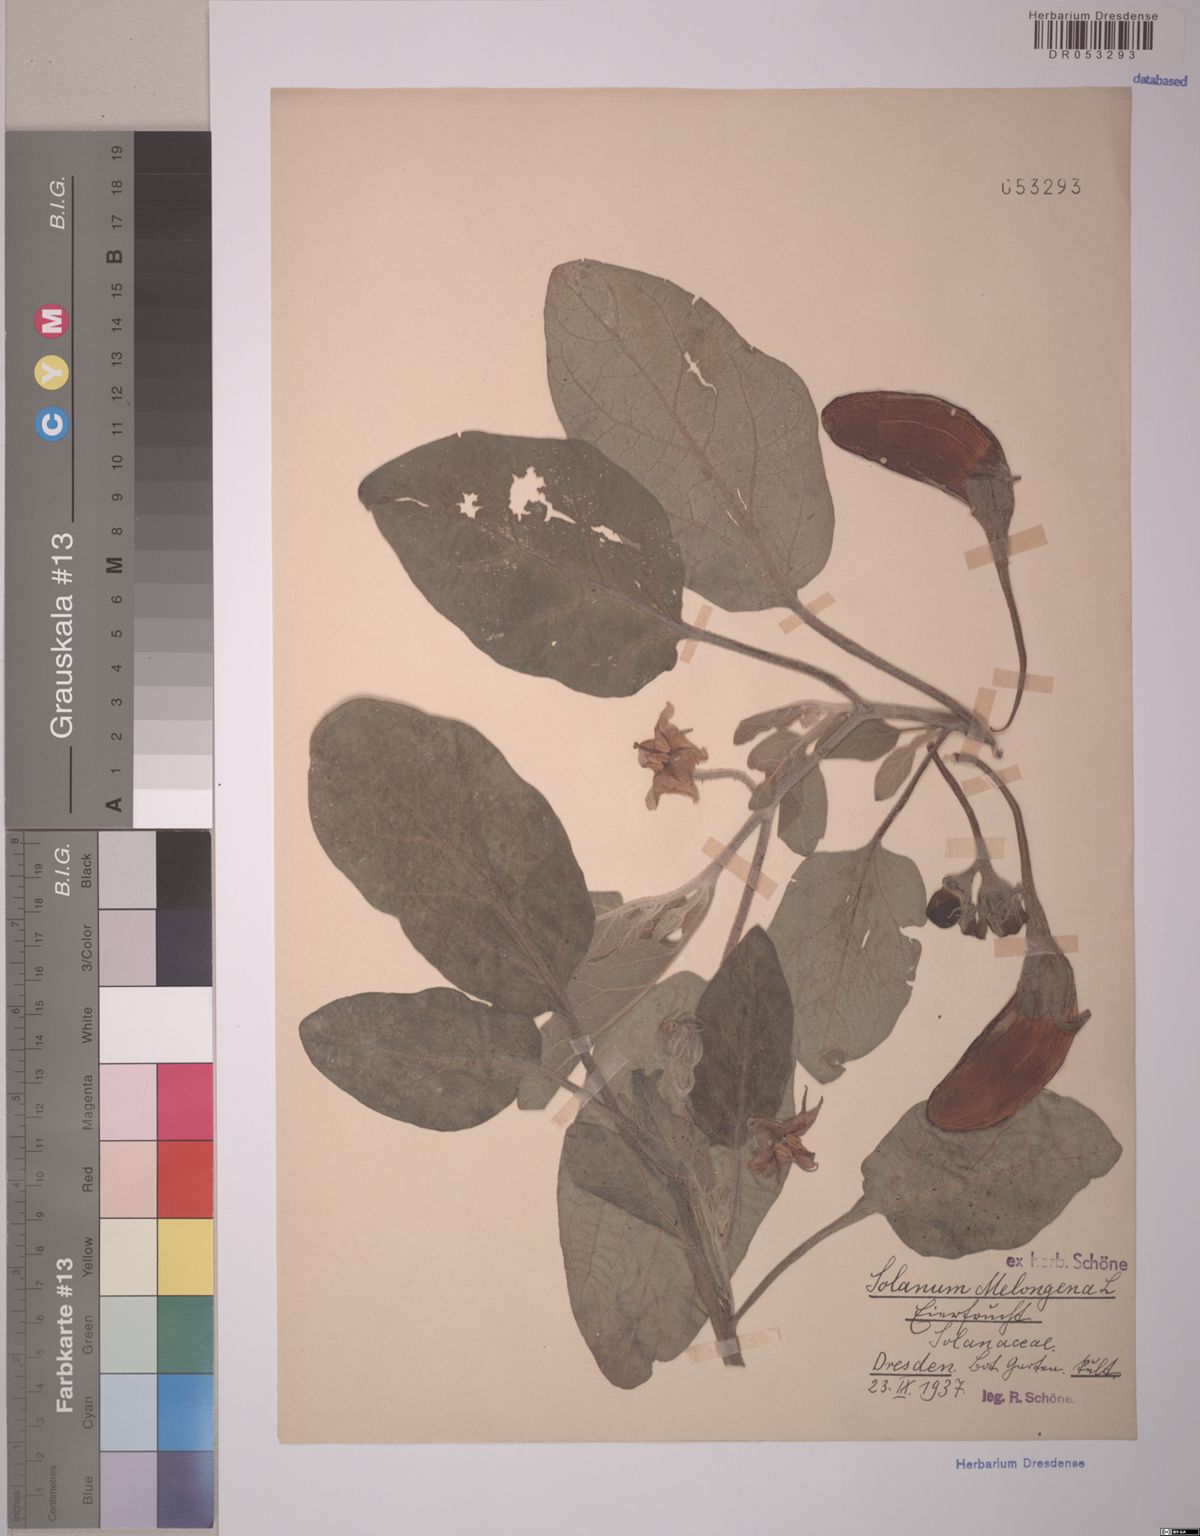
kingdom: Plantae
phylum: Tracheophyta
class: Magnoliopsida
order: Solanales
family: Solanaceae
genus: Solanum
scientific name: Solanum melongena
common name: Eggplant
